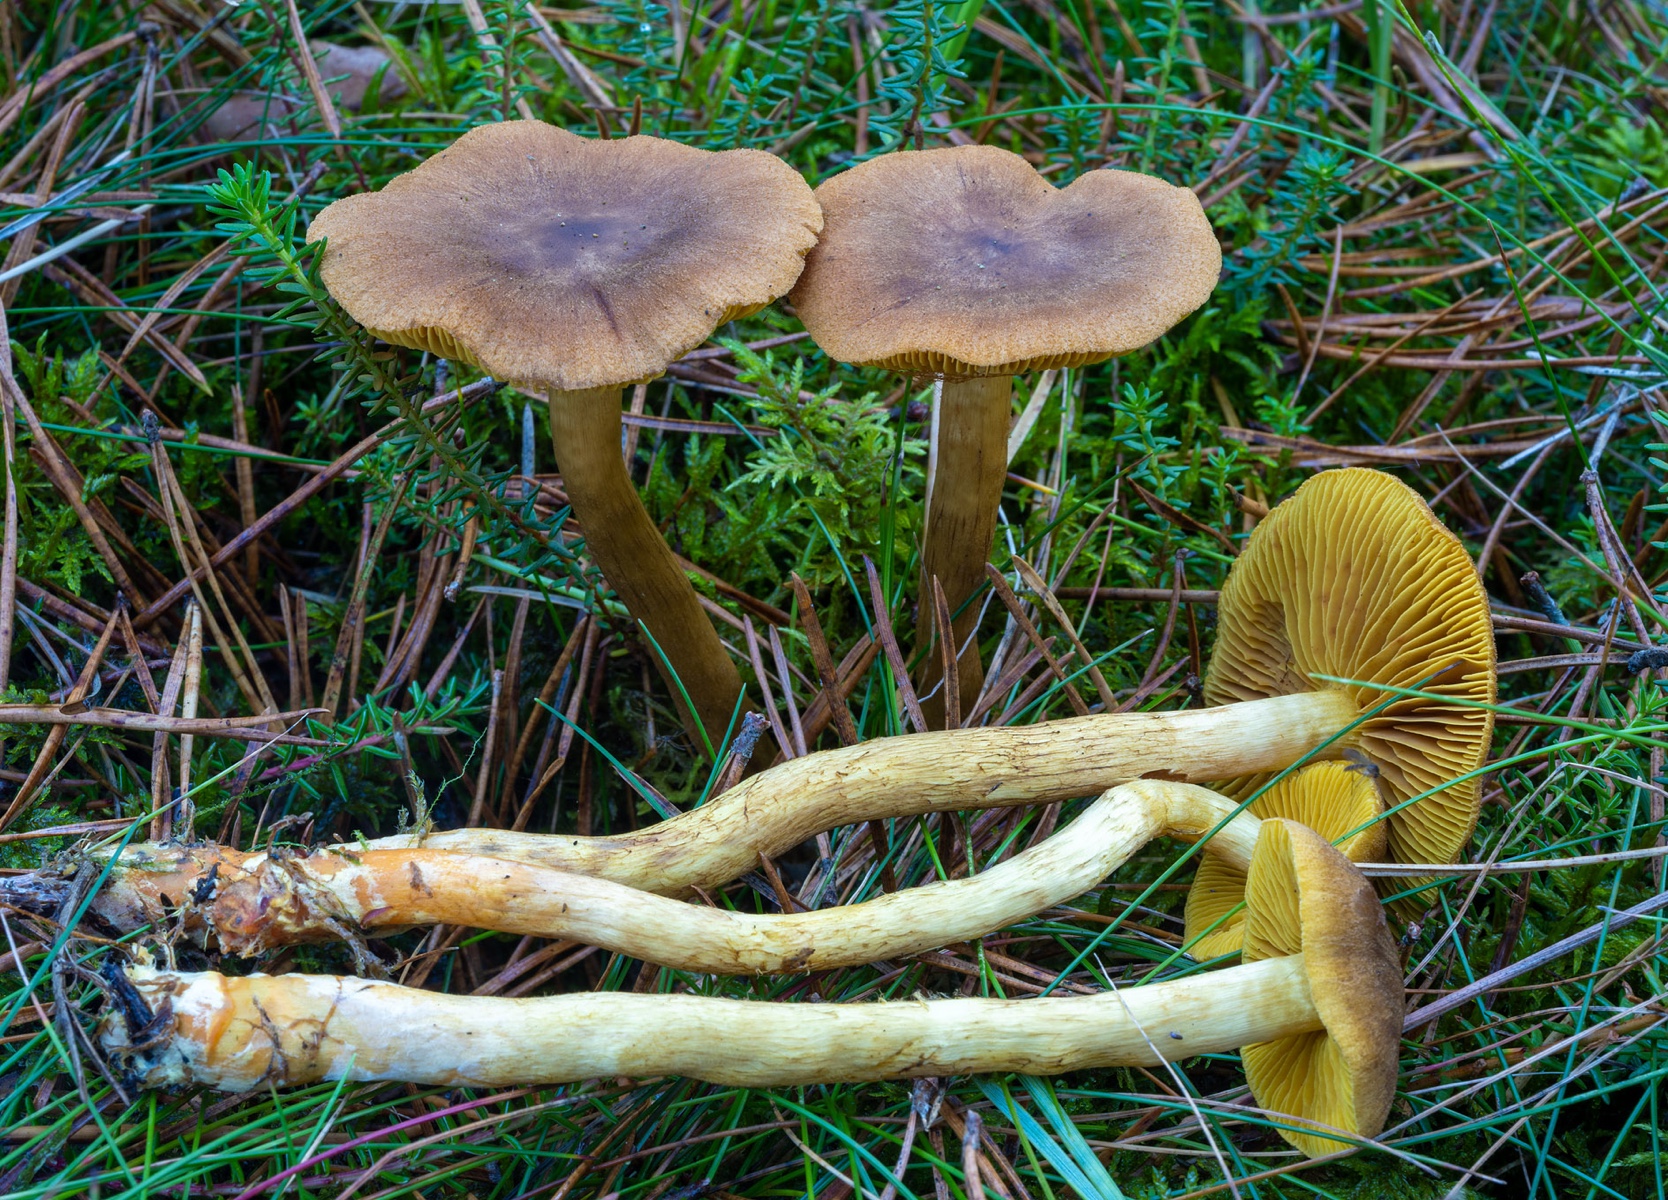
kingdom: Fungi
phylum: Basidiomycota
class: Agaricomycetes
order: Agaricales
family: Cortinariaceae
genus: Cortinarius
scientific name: Cortinarius bataillei
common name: orangefodet slørhat
